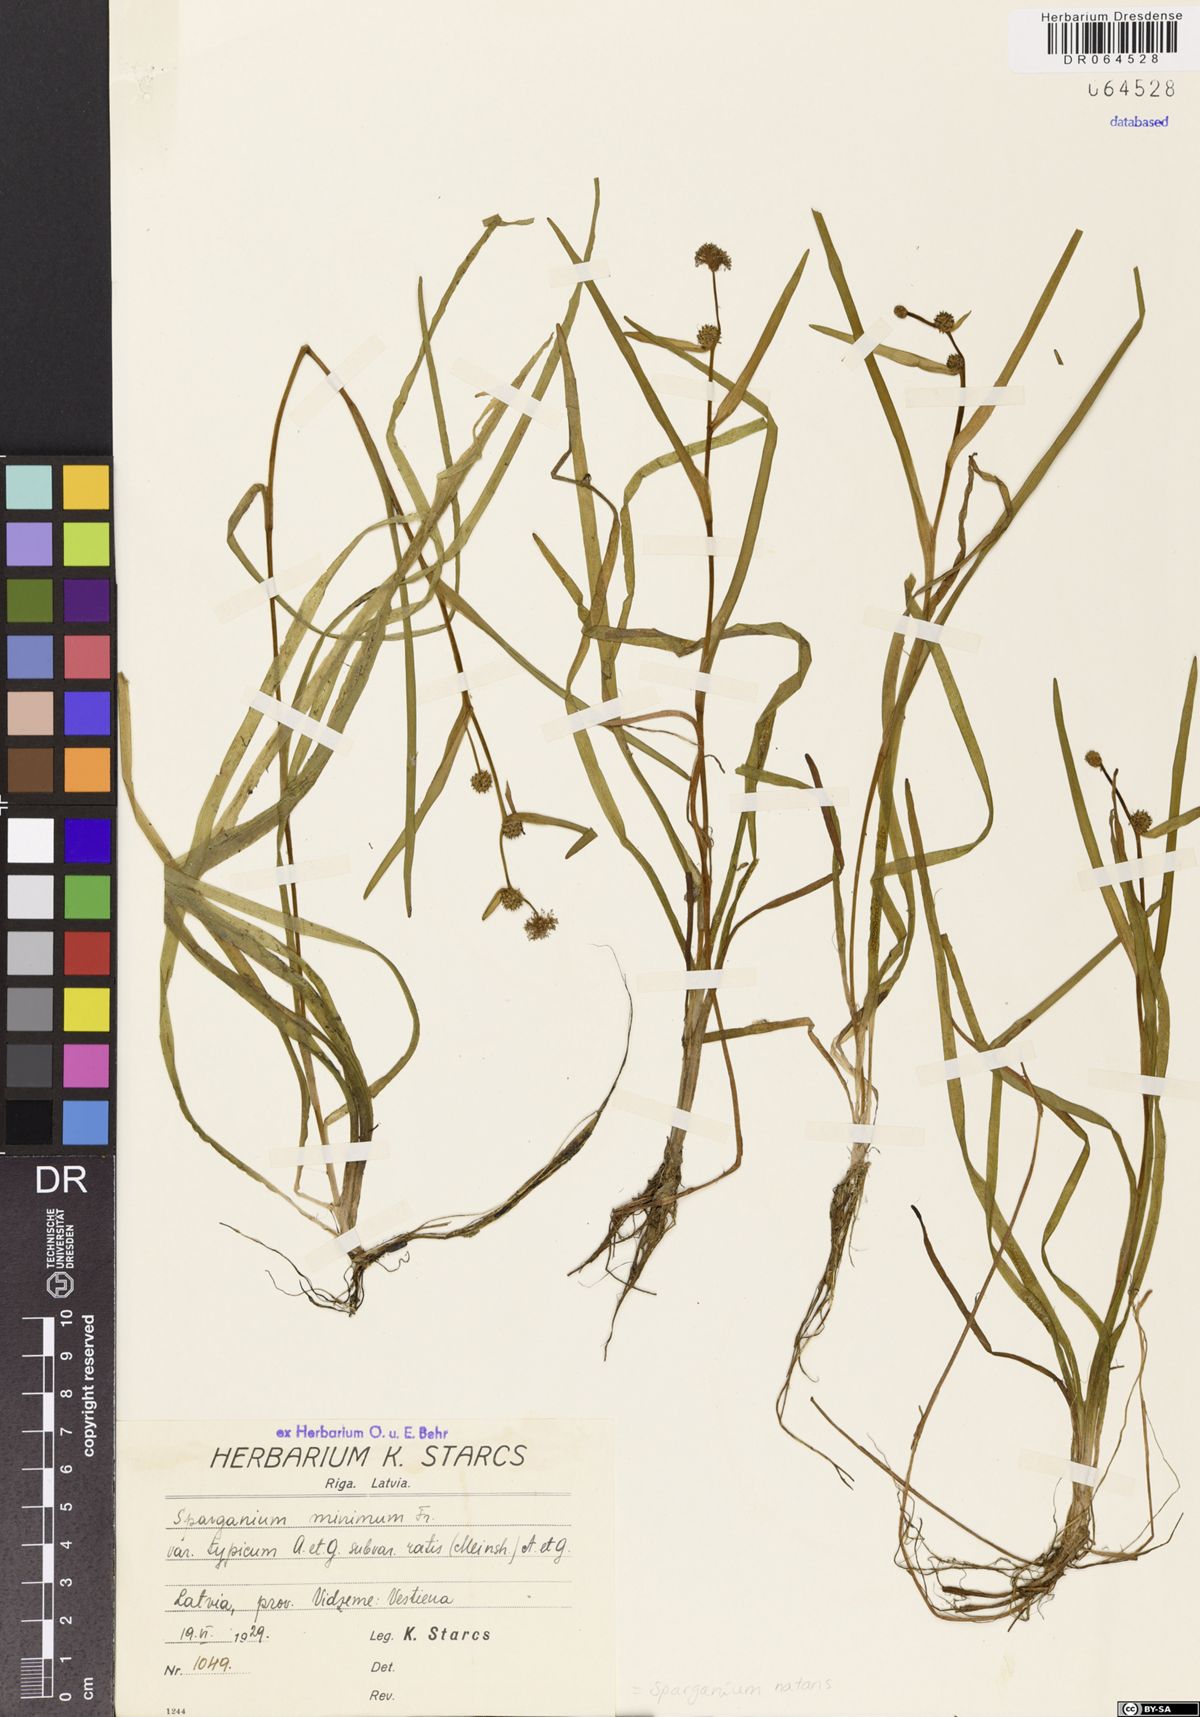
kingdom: Plantae
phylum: Tracheophyta
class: Liliopsida
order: Poales
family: Typhaceae
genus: Sparganium
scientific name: Sparganium natans
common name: Least bur-reed
